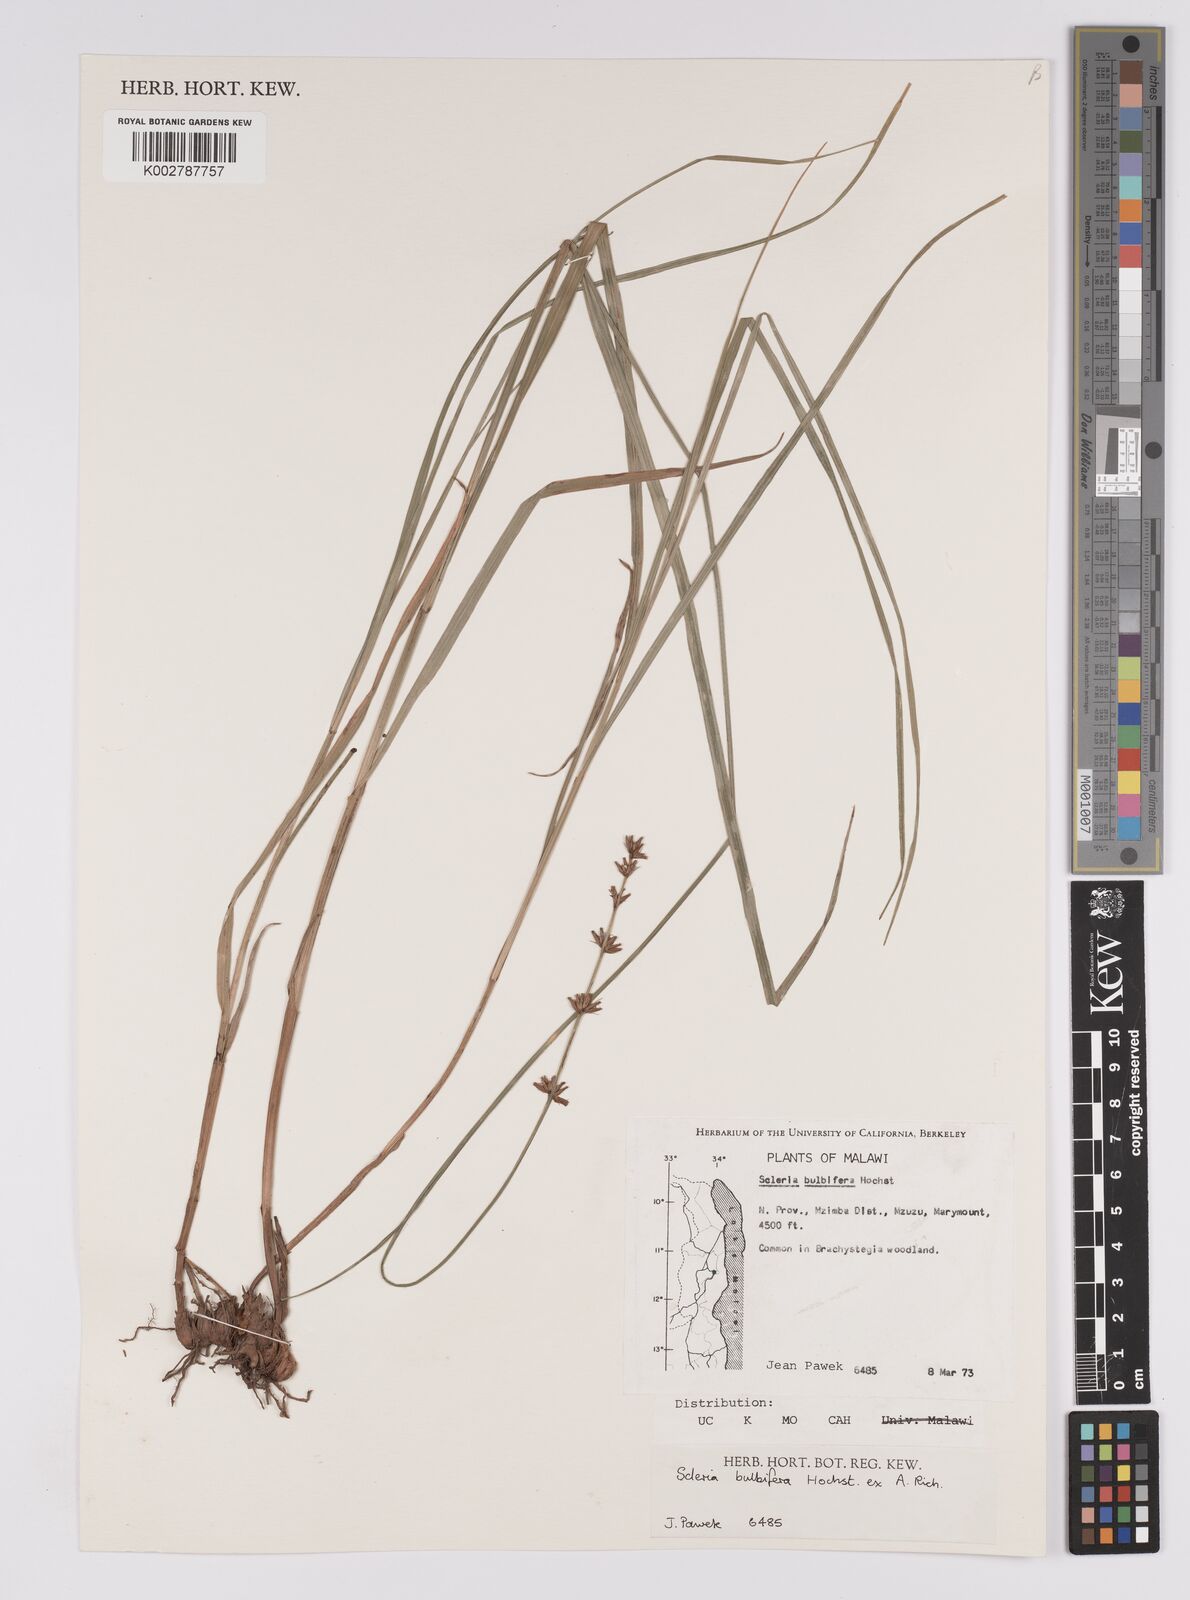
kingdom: Plantae
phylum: Tracheophyta
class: Liliopsida
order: Poales
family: Cyperaceae
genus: Scleria
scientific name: Scleria bulbifera
